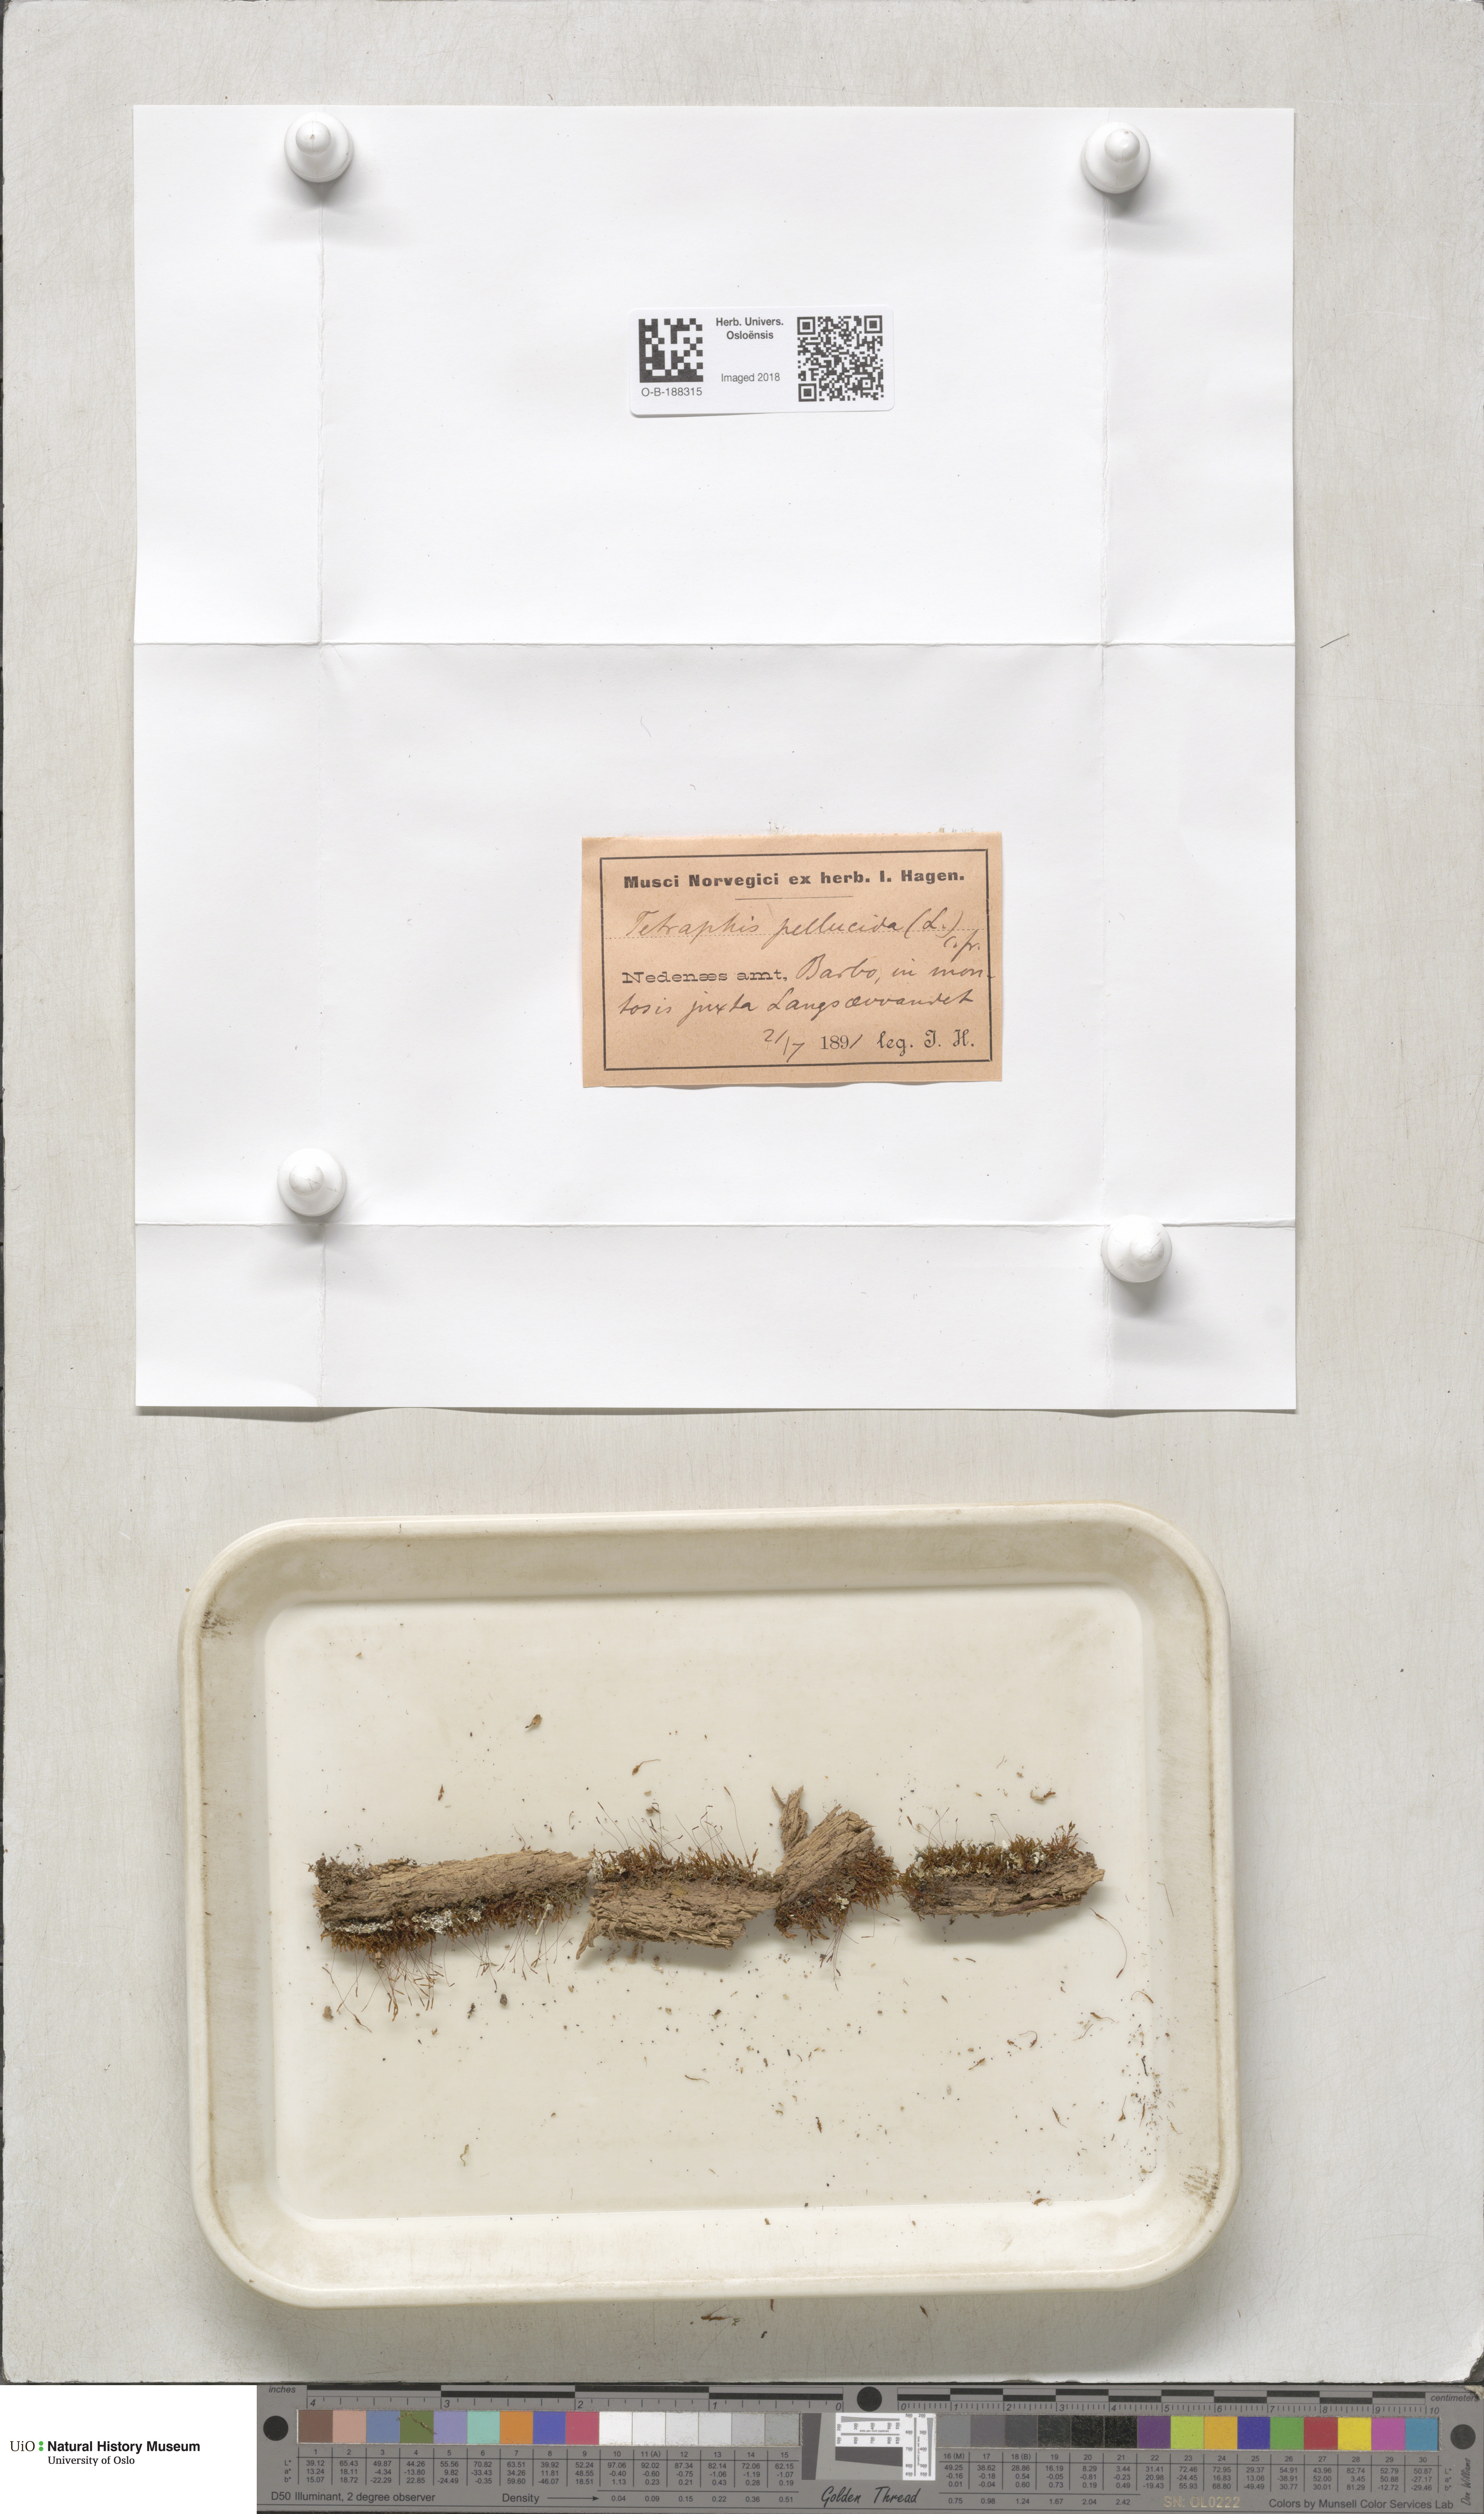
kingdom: Plantae
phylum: Bryophyta
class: Polytrichopsida
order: Tetraphidales
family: Tetraphidaceae
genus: Tetraphis
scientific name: Tetraphis pellucida
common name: Common four-toothed moss
